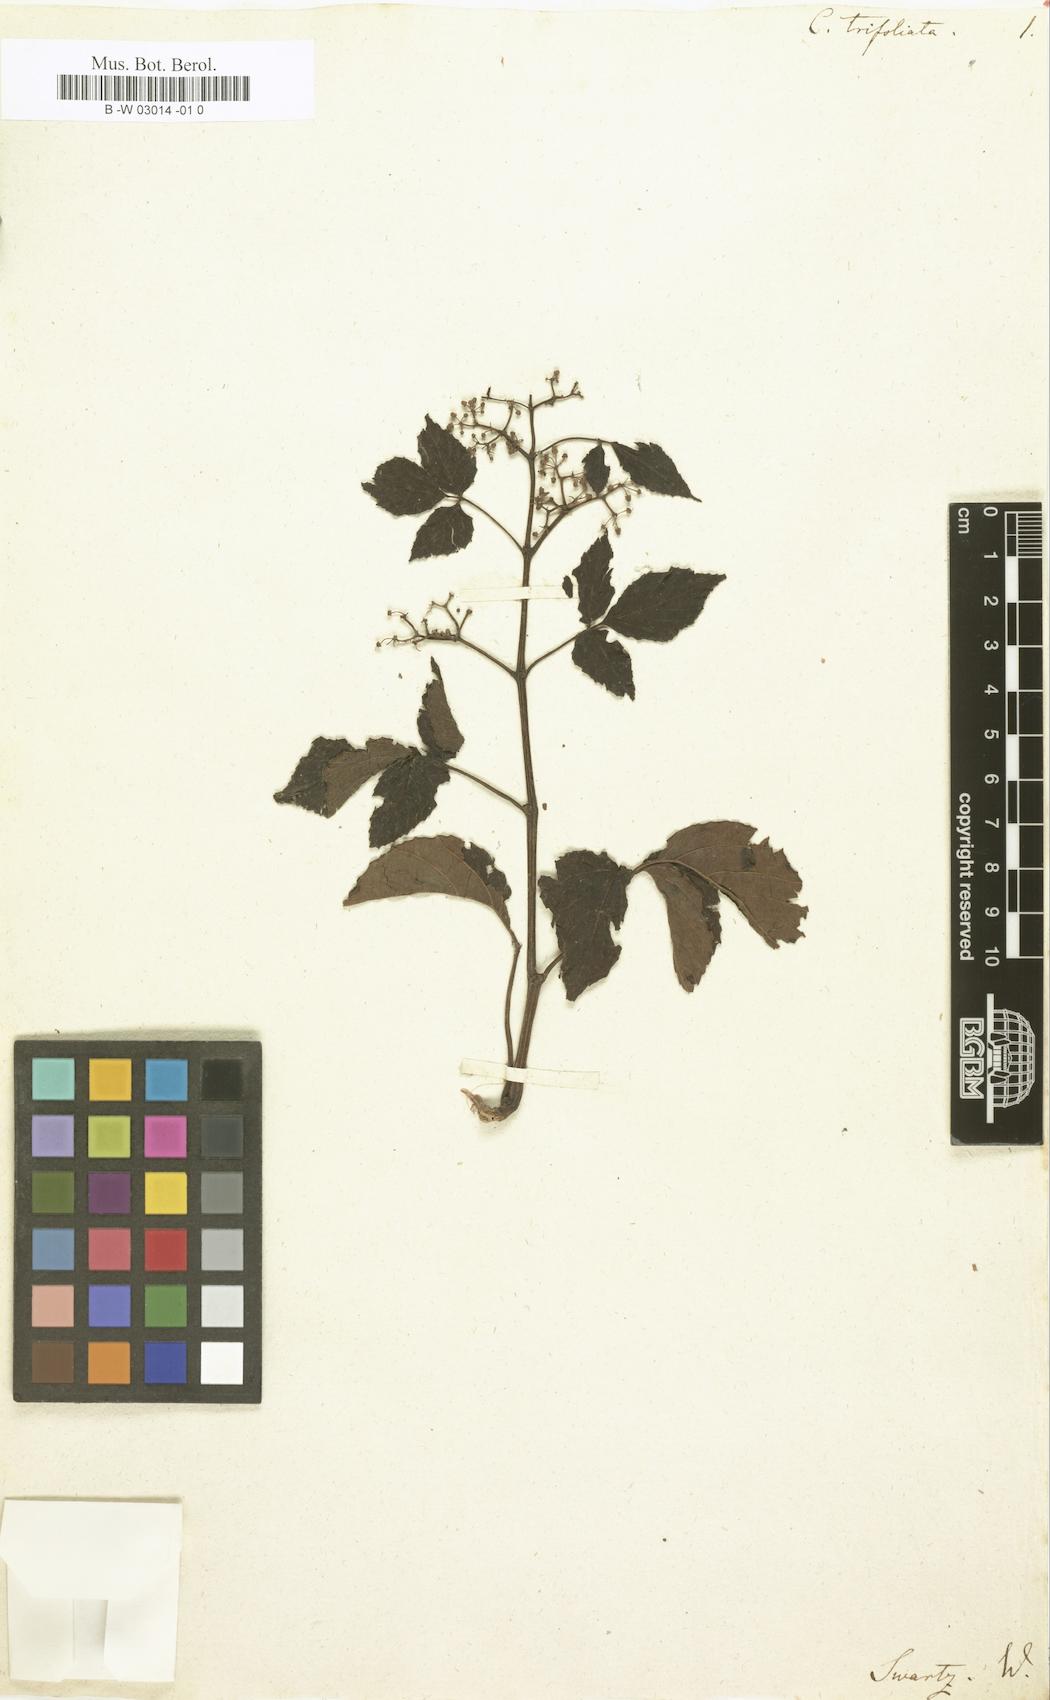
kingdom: Plantae
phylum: Tracheophyta
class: Magnoliopsida
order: Vitales
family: Vitaceae
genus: Cissus
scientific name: Cissus trifoliata
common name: Vine-sorrel
